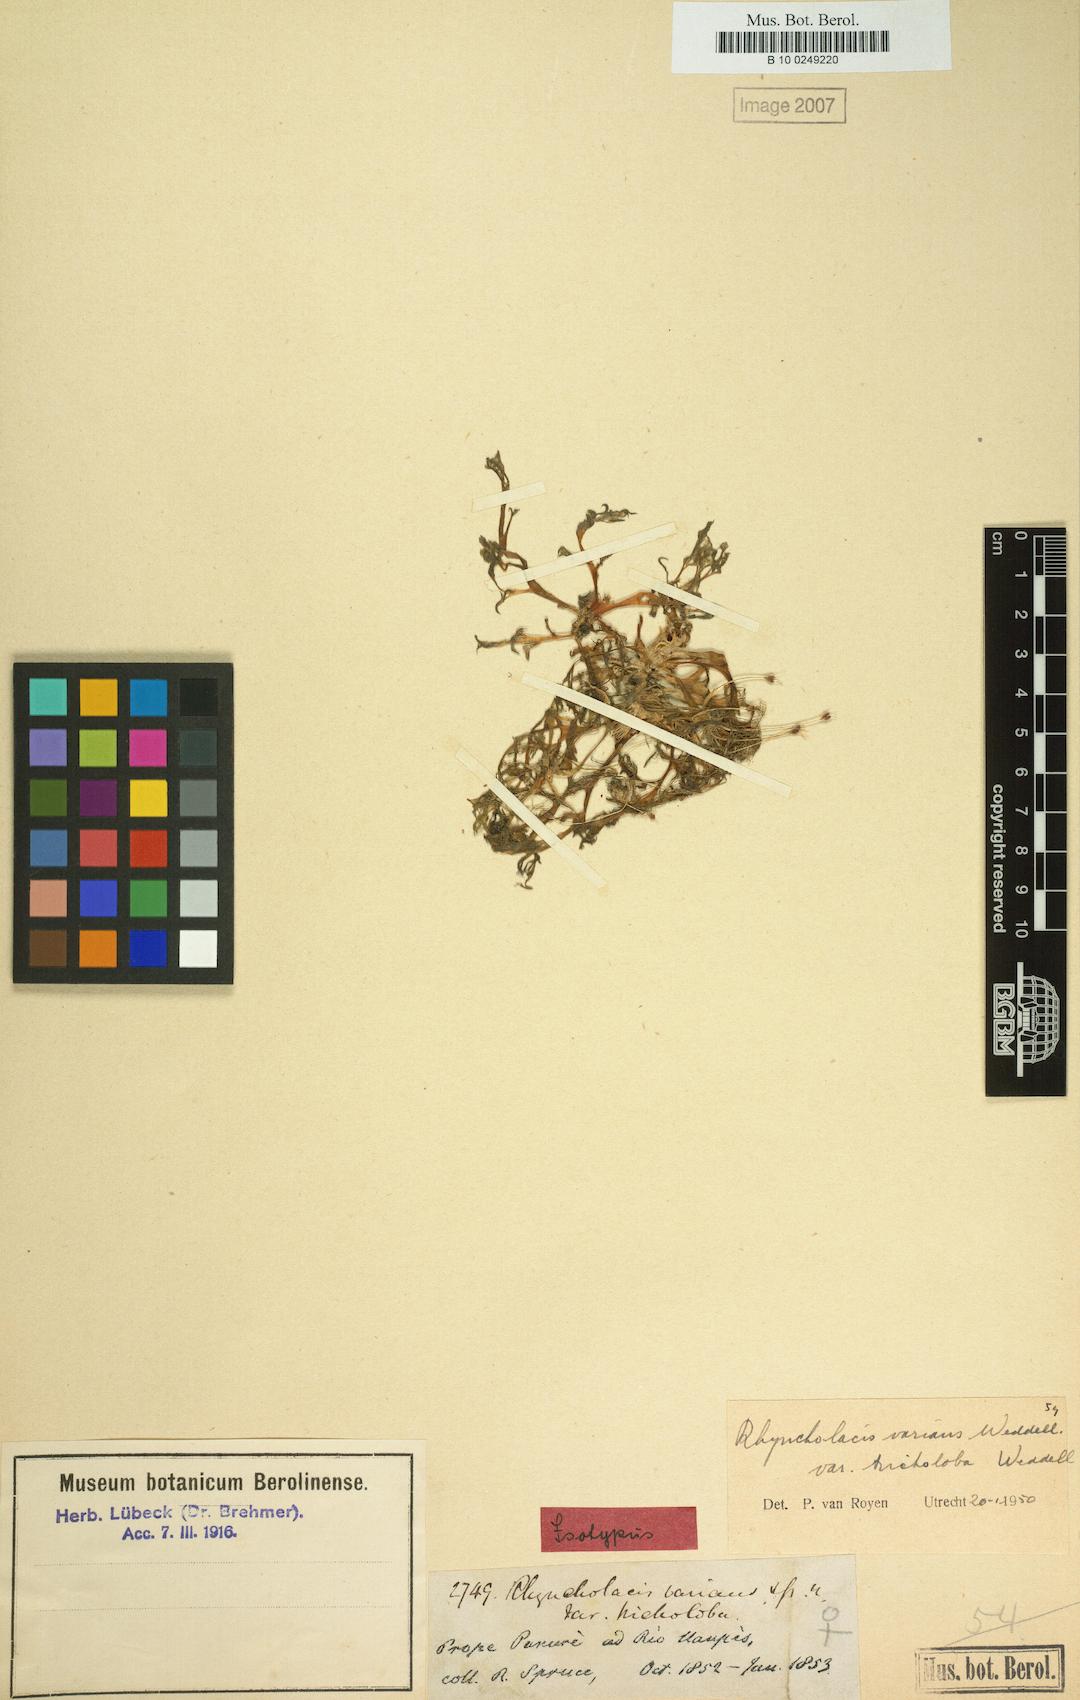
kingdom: Plantae
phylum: Tracheophyta
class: Magnoliopsida
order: Malpighiales
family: Podostemaceae
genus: Rhyncholacis
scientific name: Rhyncholacis varians
